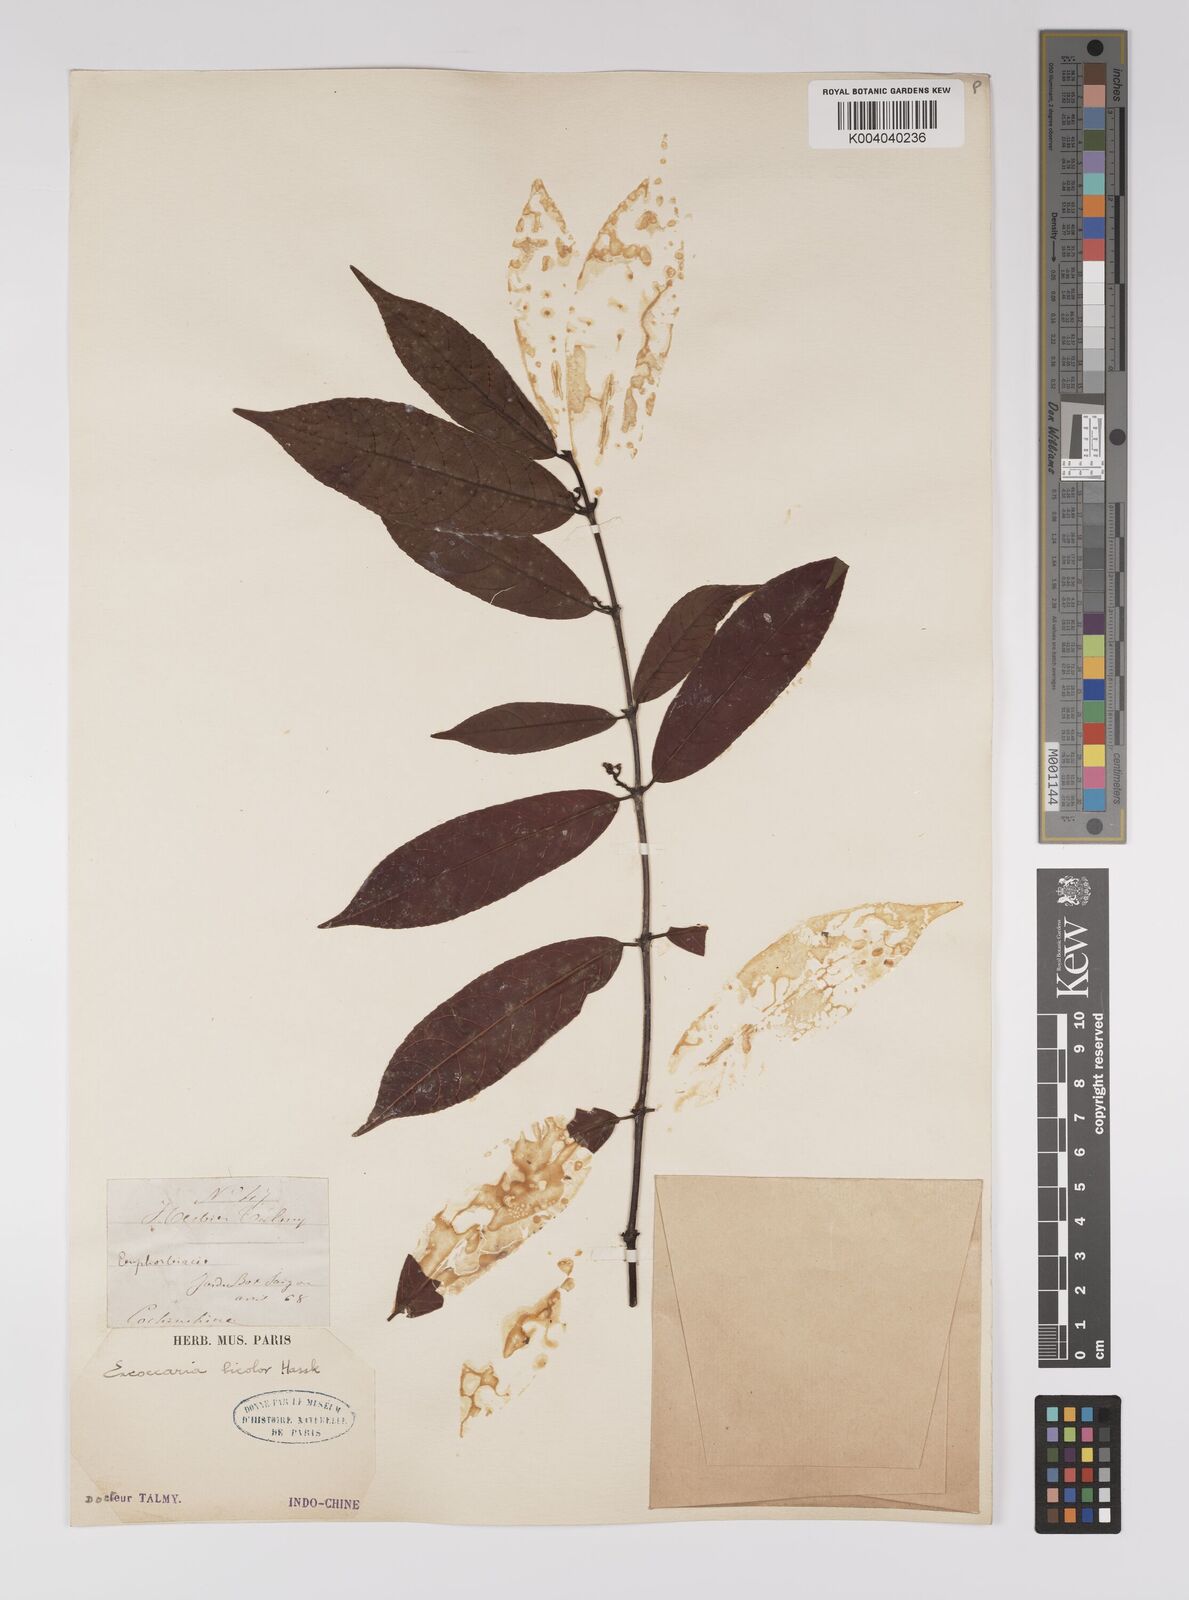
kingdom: Plantae
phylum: Tracheophyta
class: Magnoliopsida
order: Malpighiales
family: Euphorbiaceae
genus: Excoecaria
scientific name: Excoecaria cochinchinensis
